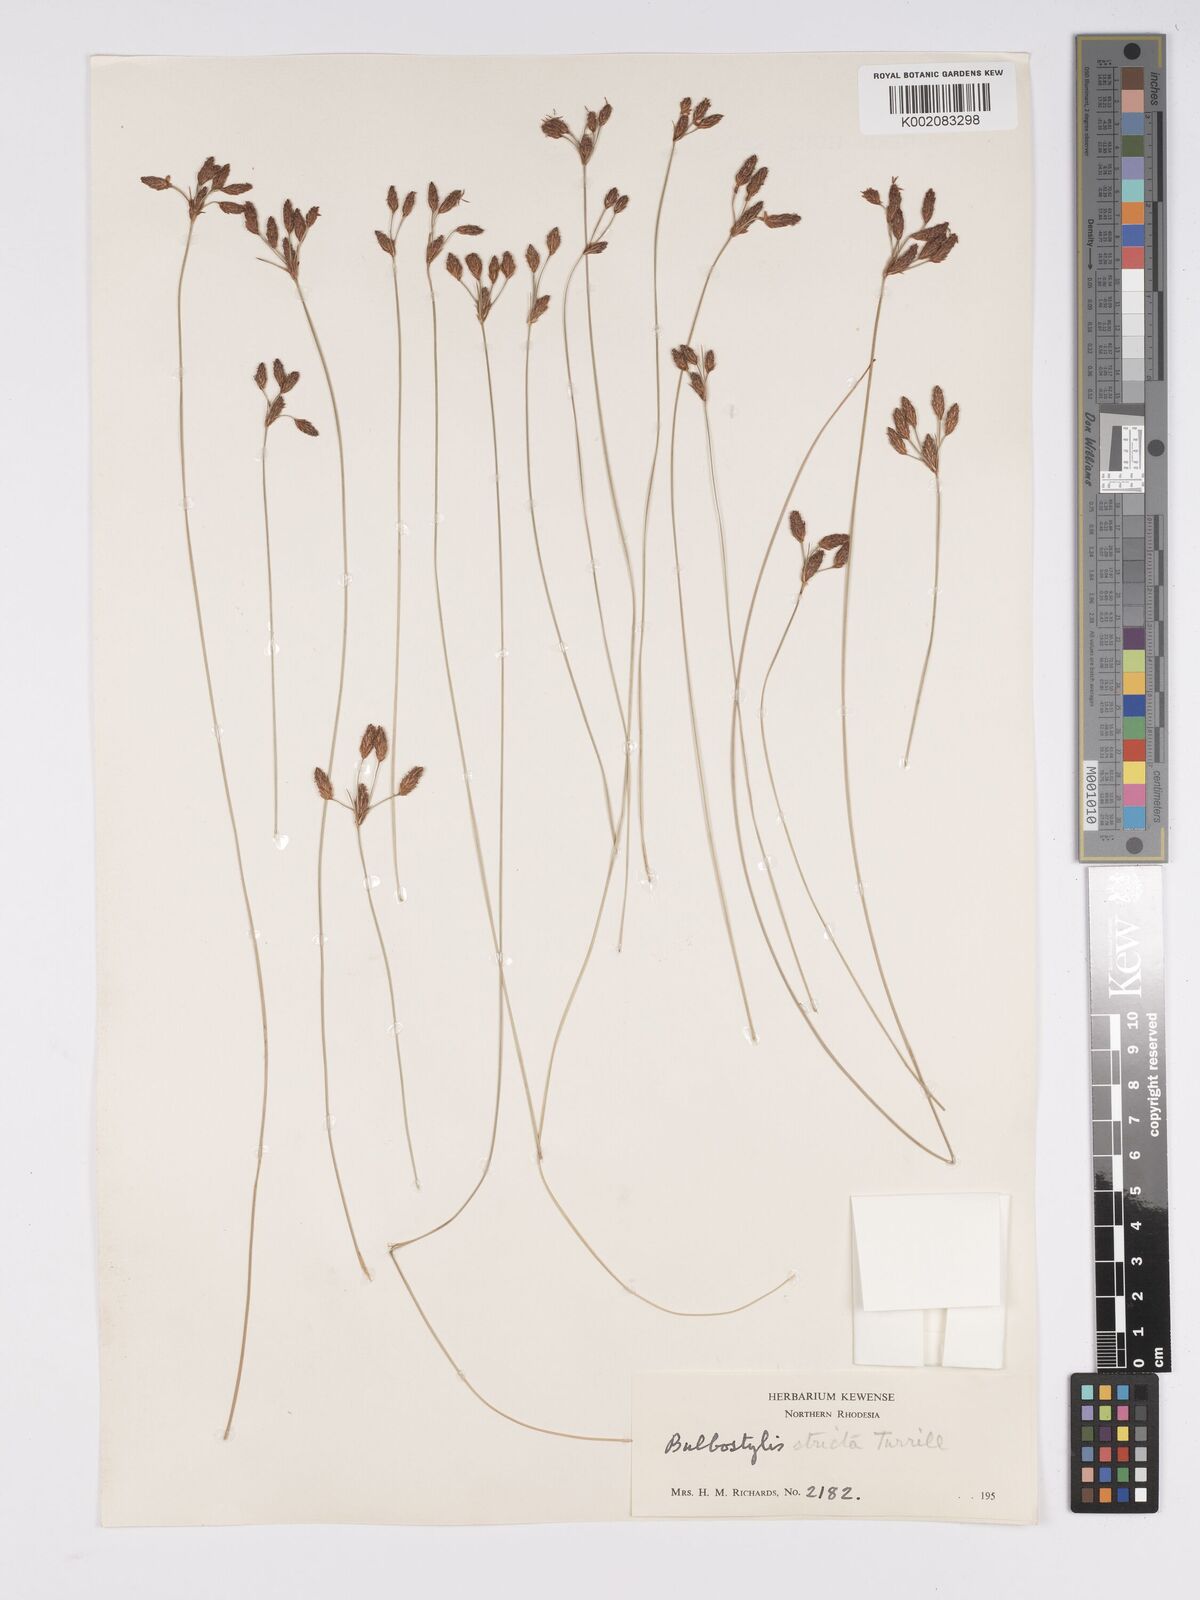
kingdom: Plantae
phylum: Tracheophyta
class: Liliopsida
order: Poales
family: Cyperaceae
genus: Bulbostylis
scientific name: Bulbostylis schoenoides
